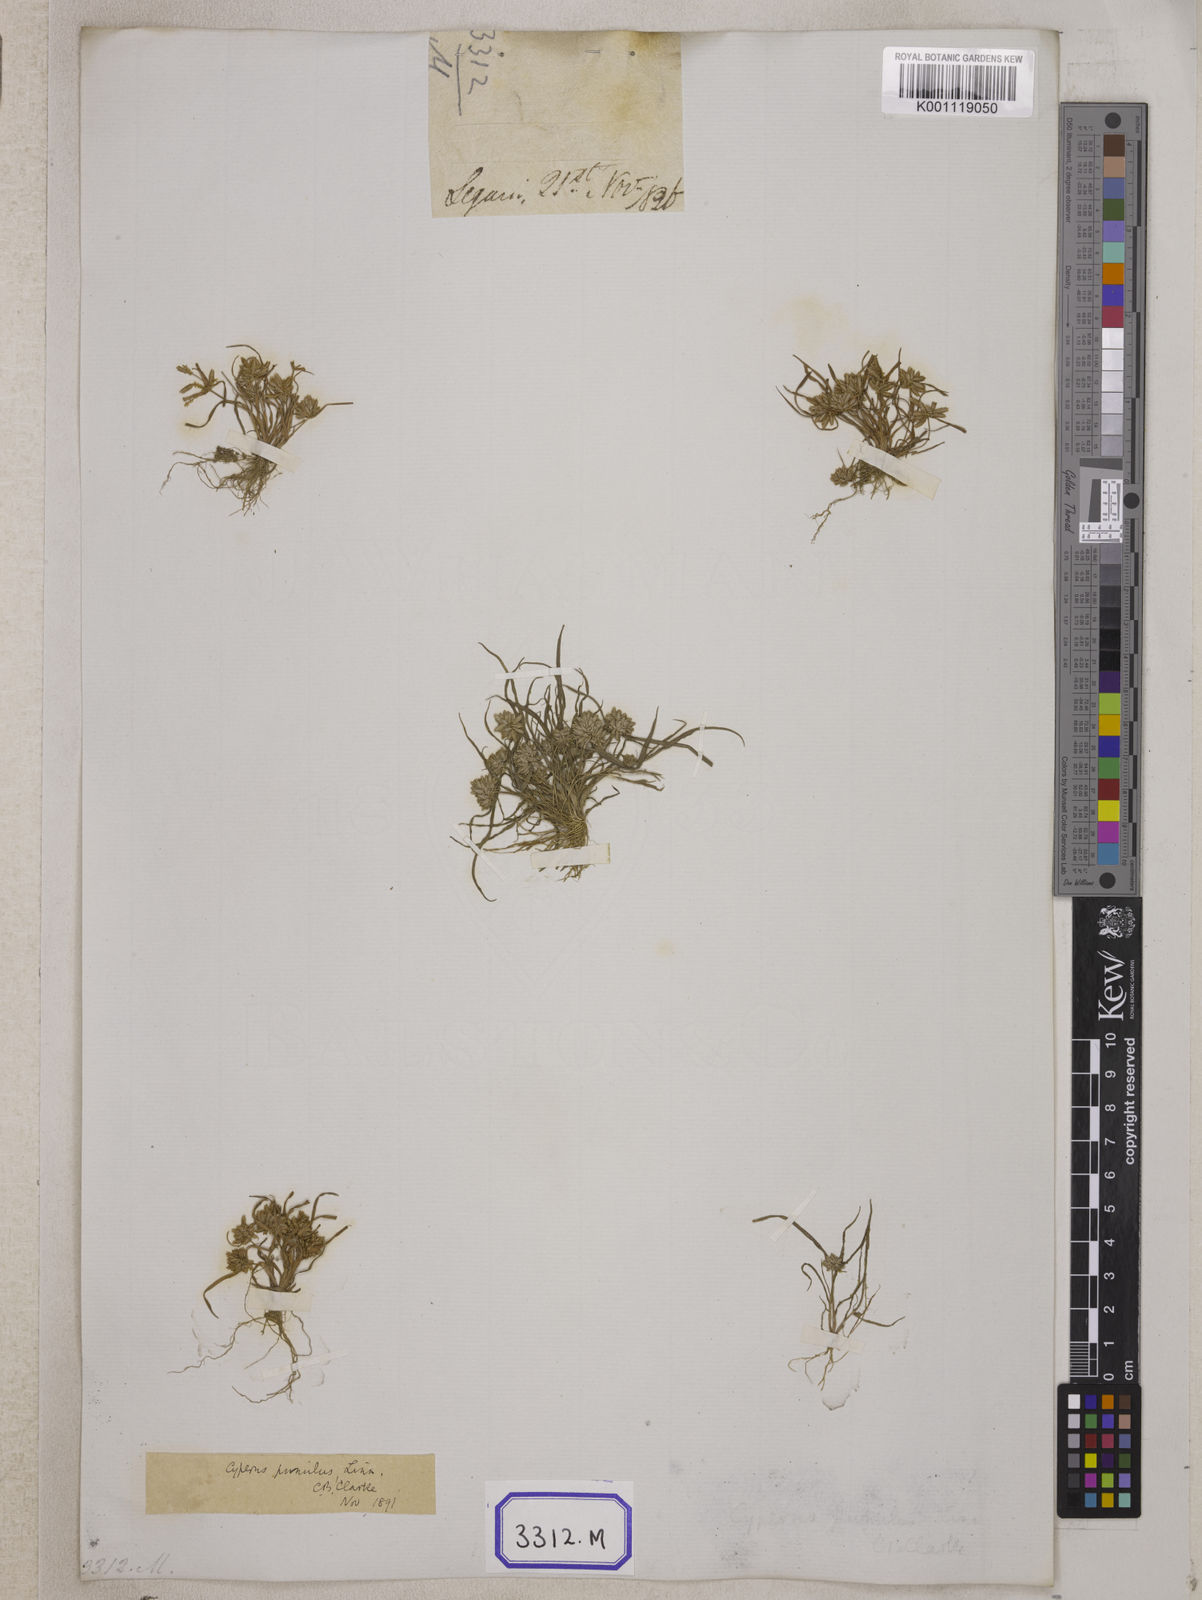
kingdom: Plantae
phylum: Tracheophyta
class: Liliopsida
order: Poales
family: Cyperaceae
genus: Cyperus
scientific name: Cyperus
